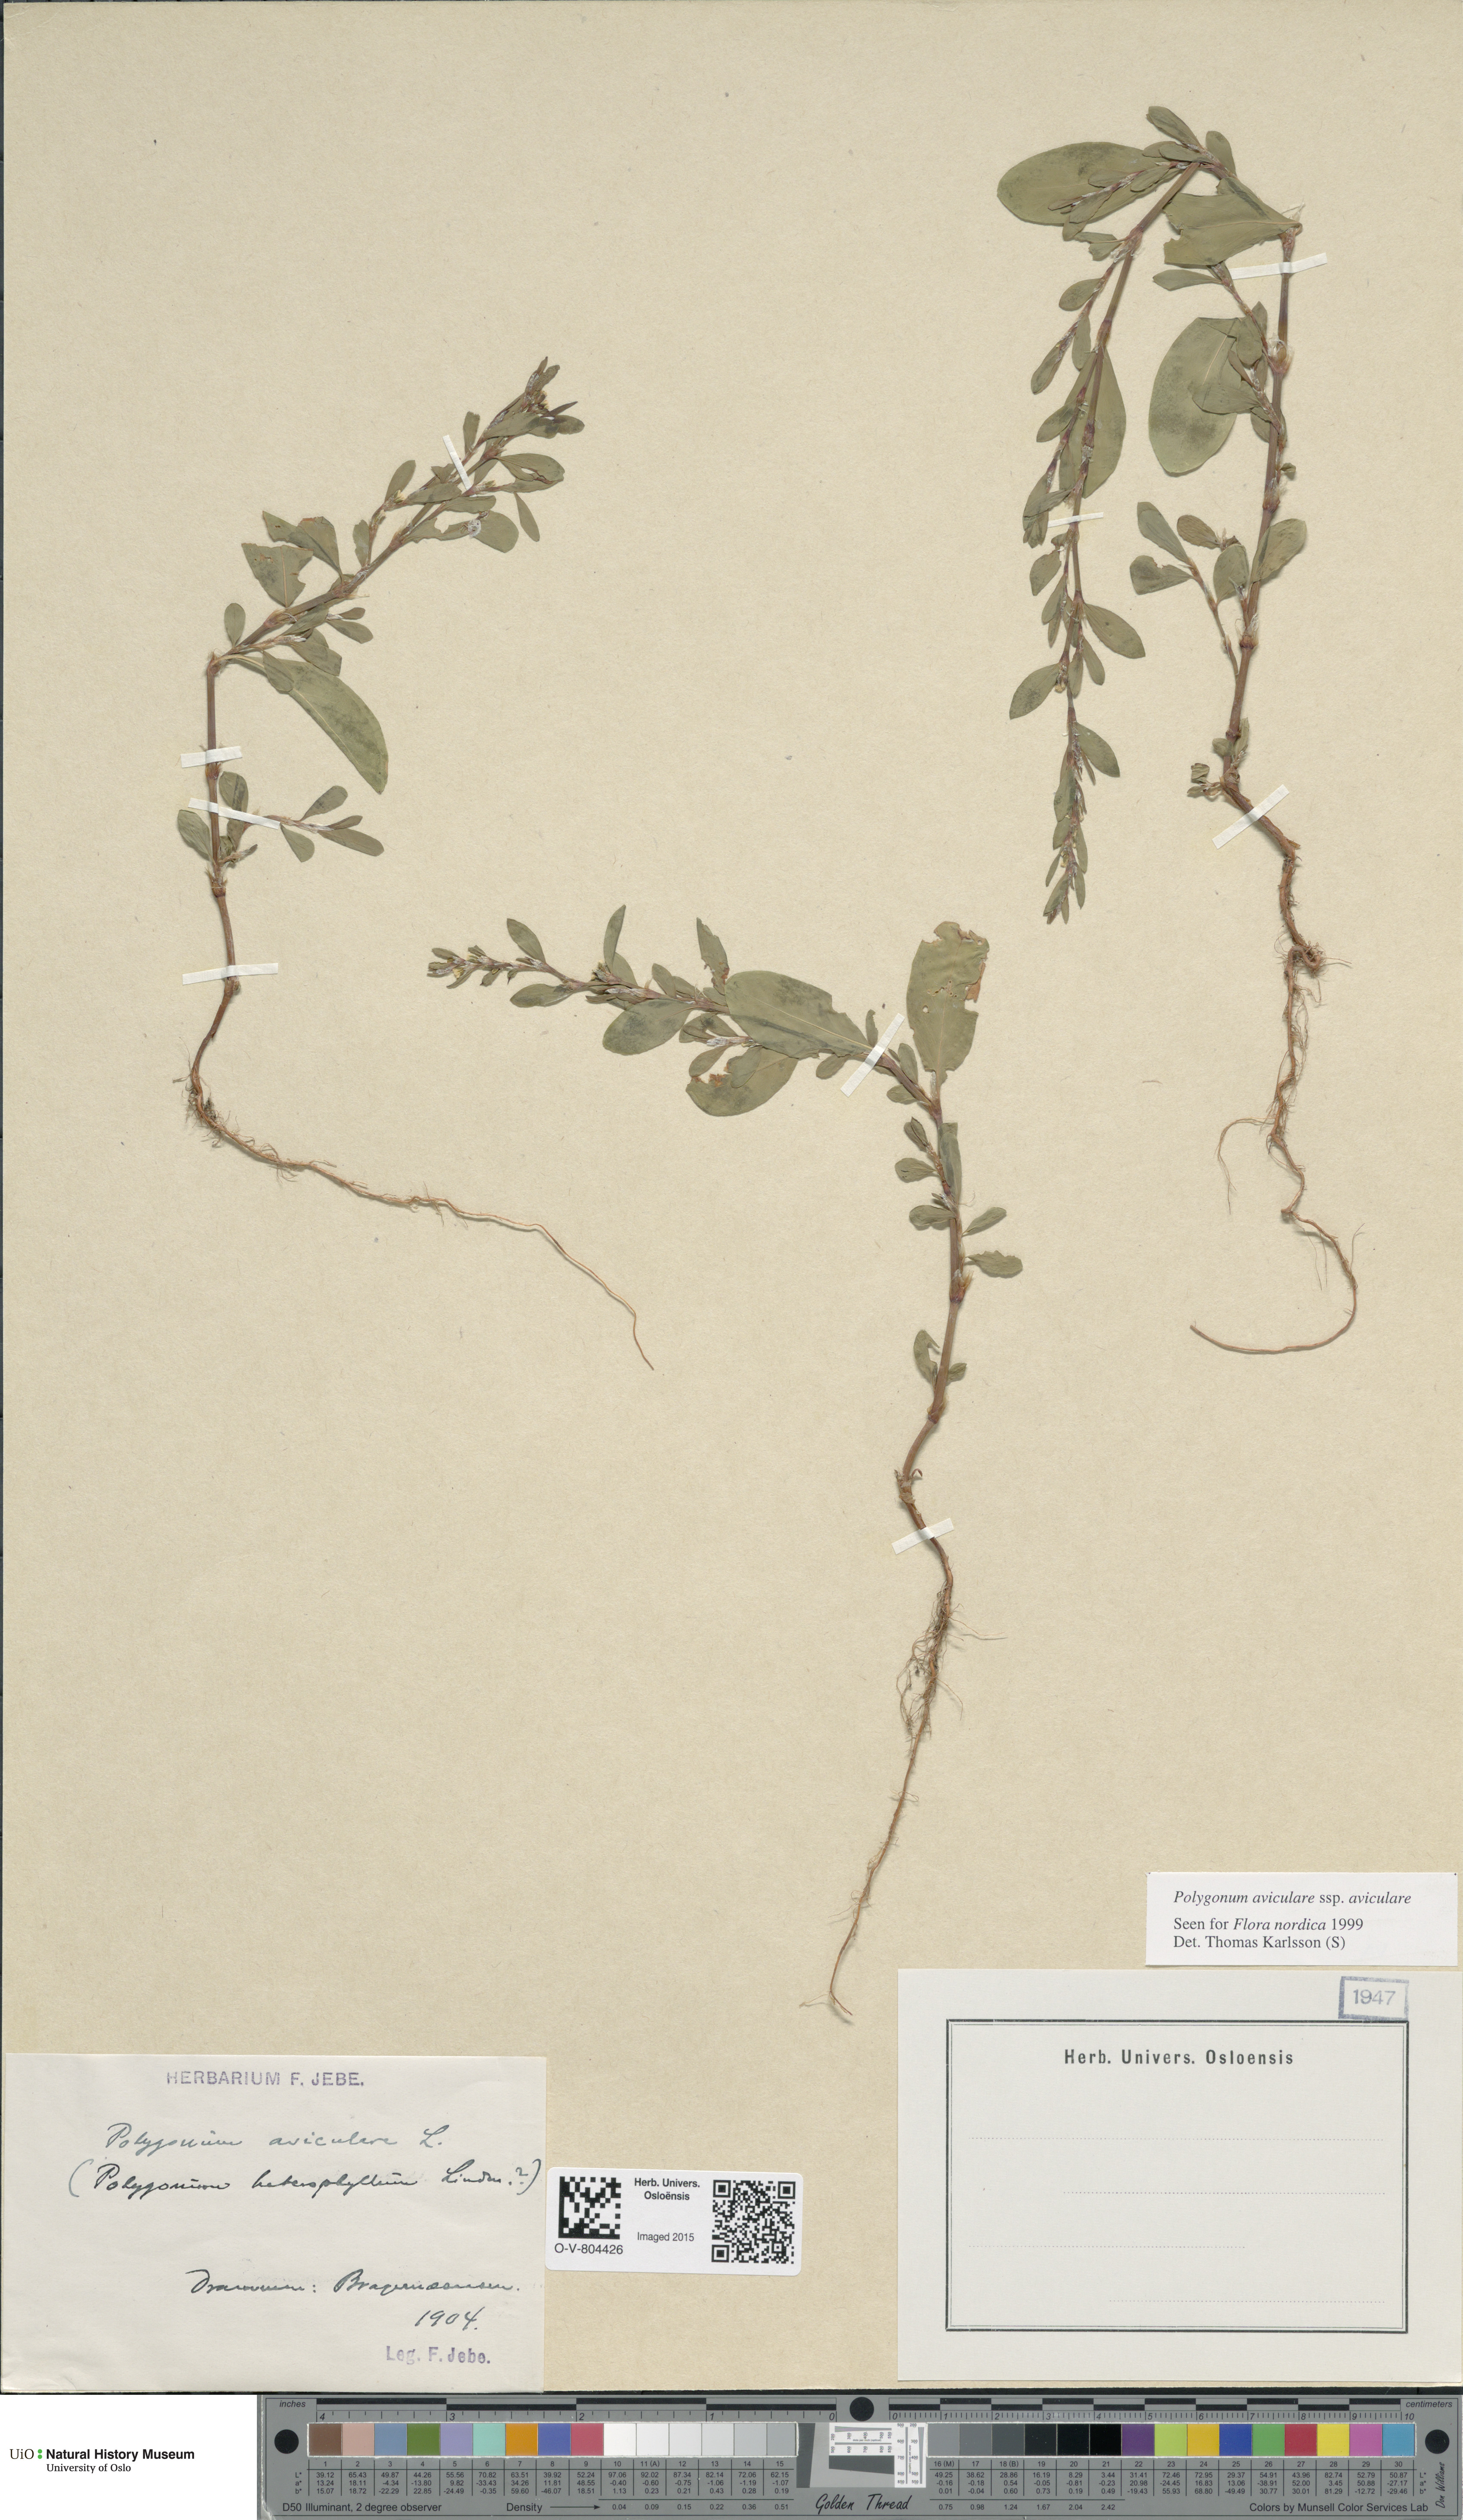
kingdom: Plantae
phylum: Tracheophyta
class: Magnoliopsida
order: Caryophyllales
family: Polygonaceae
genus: Polygonum
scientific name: Polygonum aviculare
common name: Prostrate knotweed
